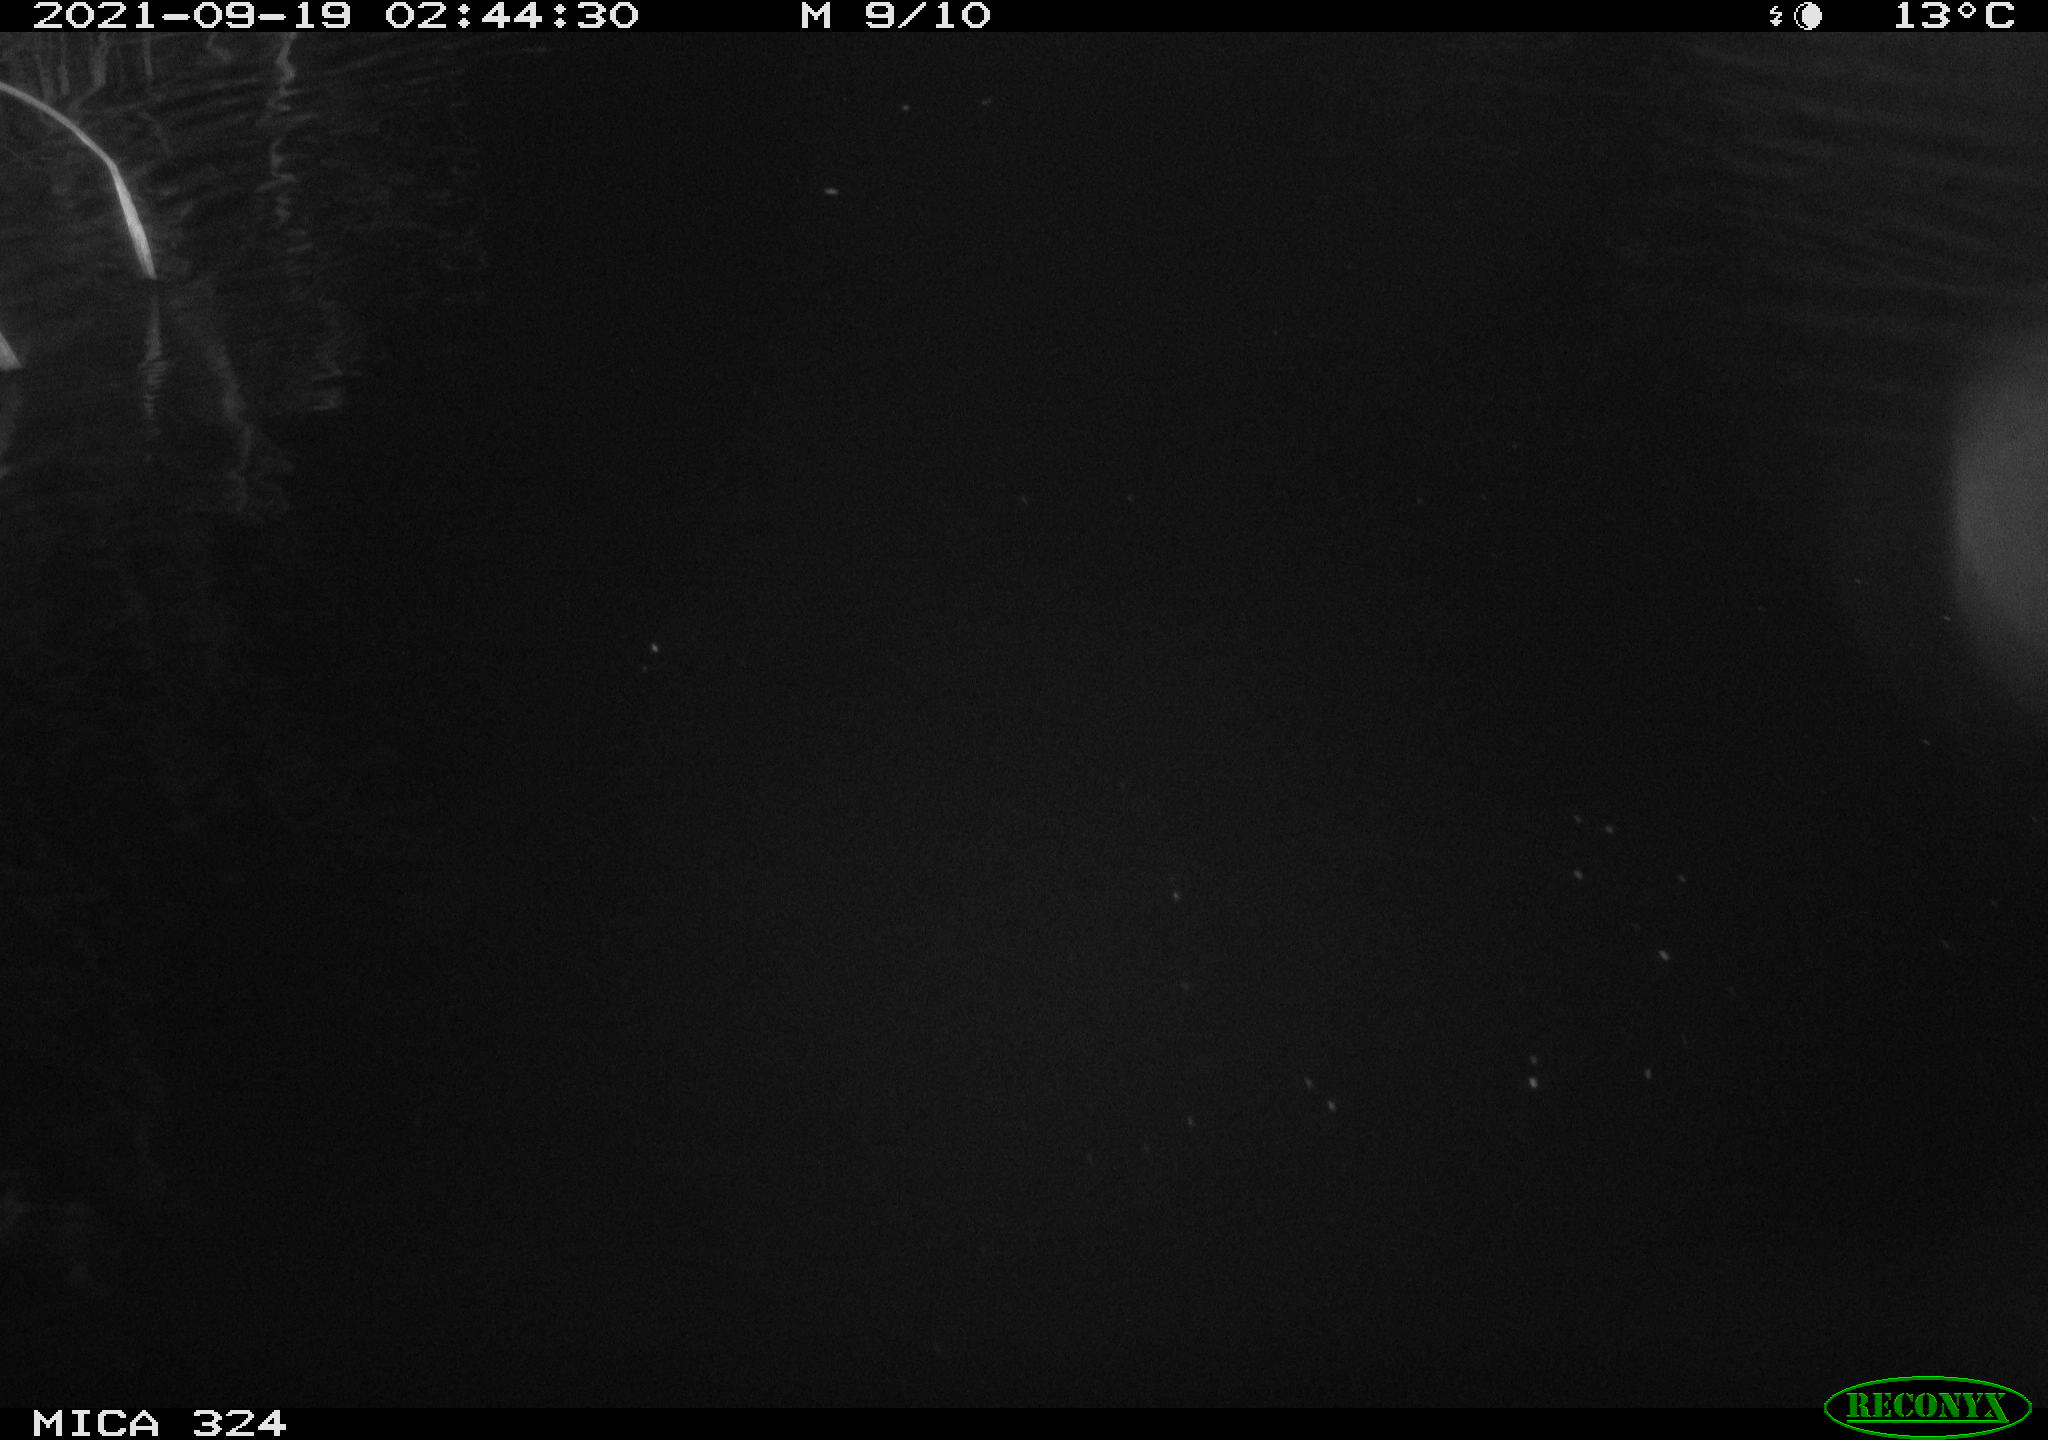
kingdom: Animalia
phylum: Chordata
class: Mammalia
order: Rodentia
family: Cricetidae
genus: Ondatra
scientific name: Ondatra zibethicus
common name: Muskrat
